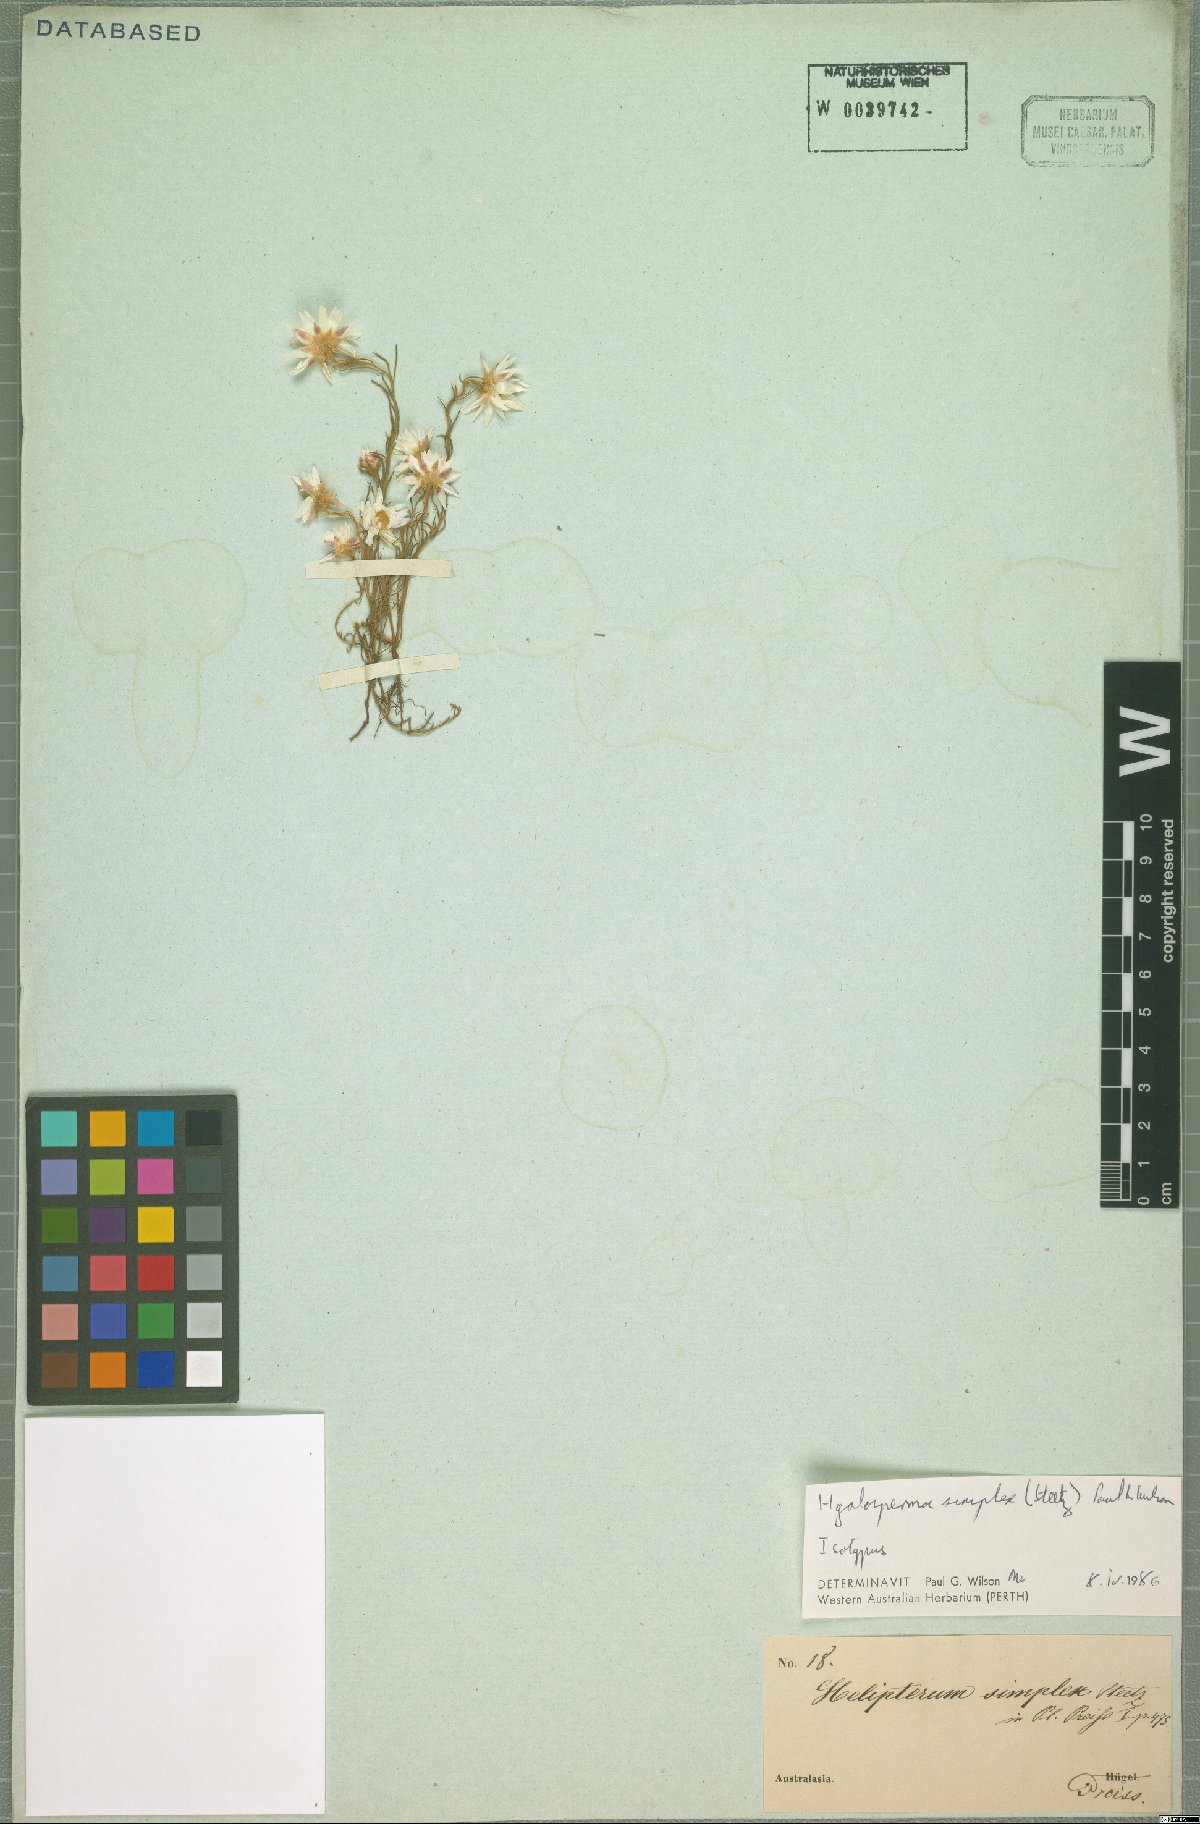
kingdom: Plantae
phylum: Tracheophyta
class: Magnoliopsida
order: Asterales
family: Asteraceae
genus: Hyalosperma
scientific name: Hyalosperma simplex
